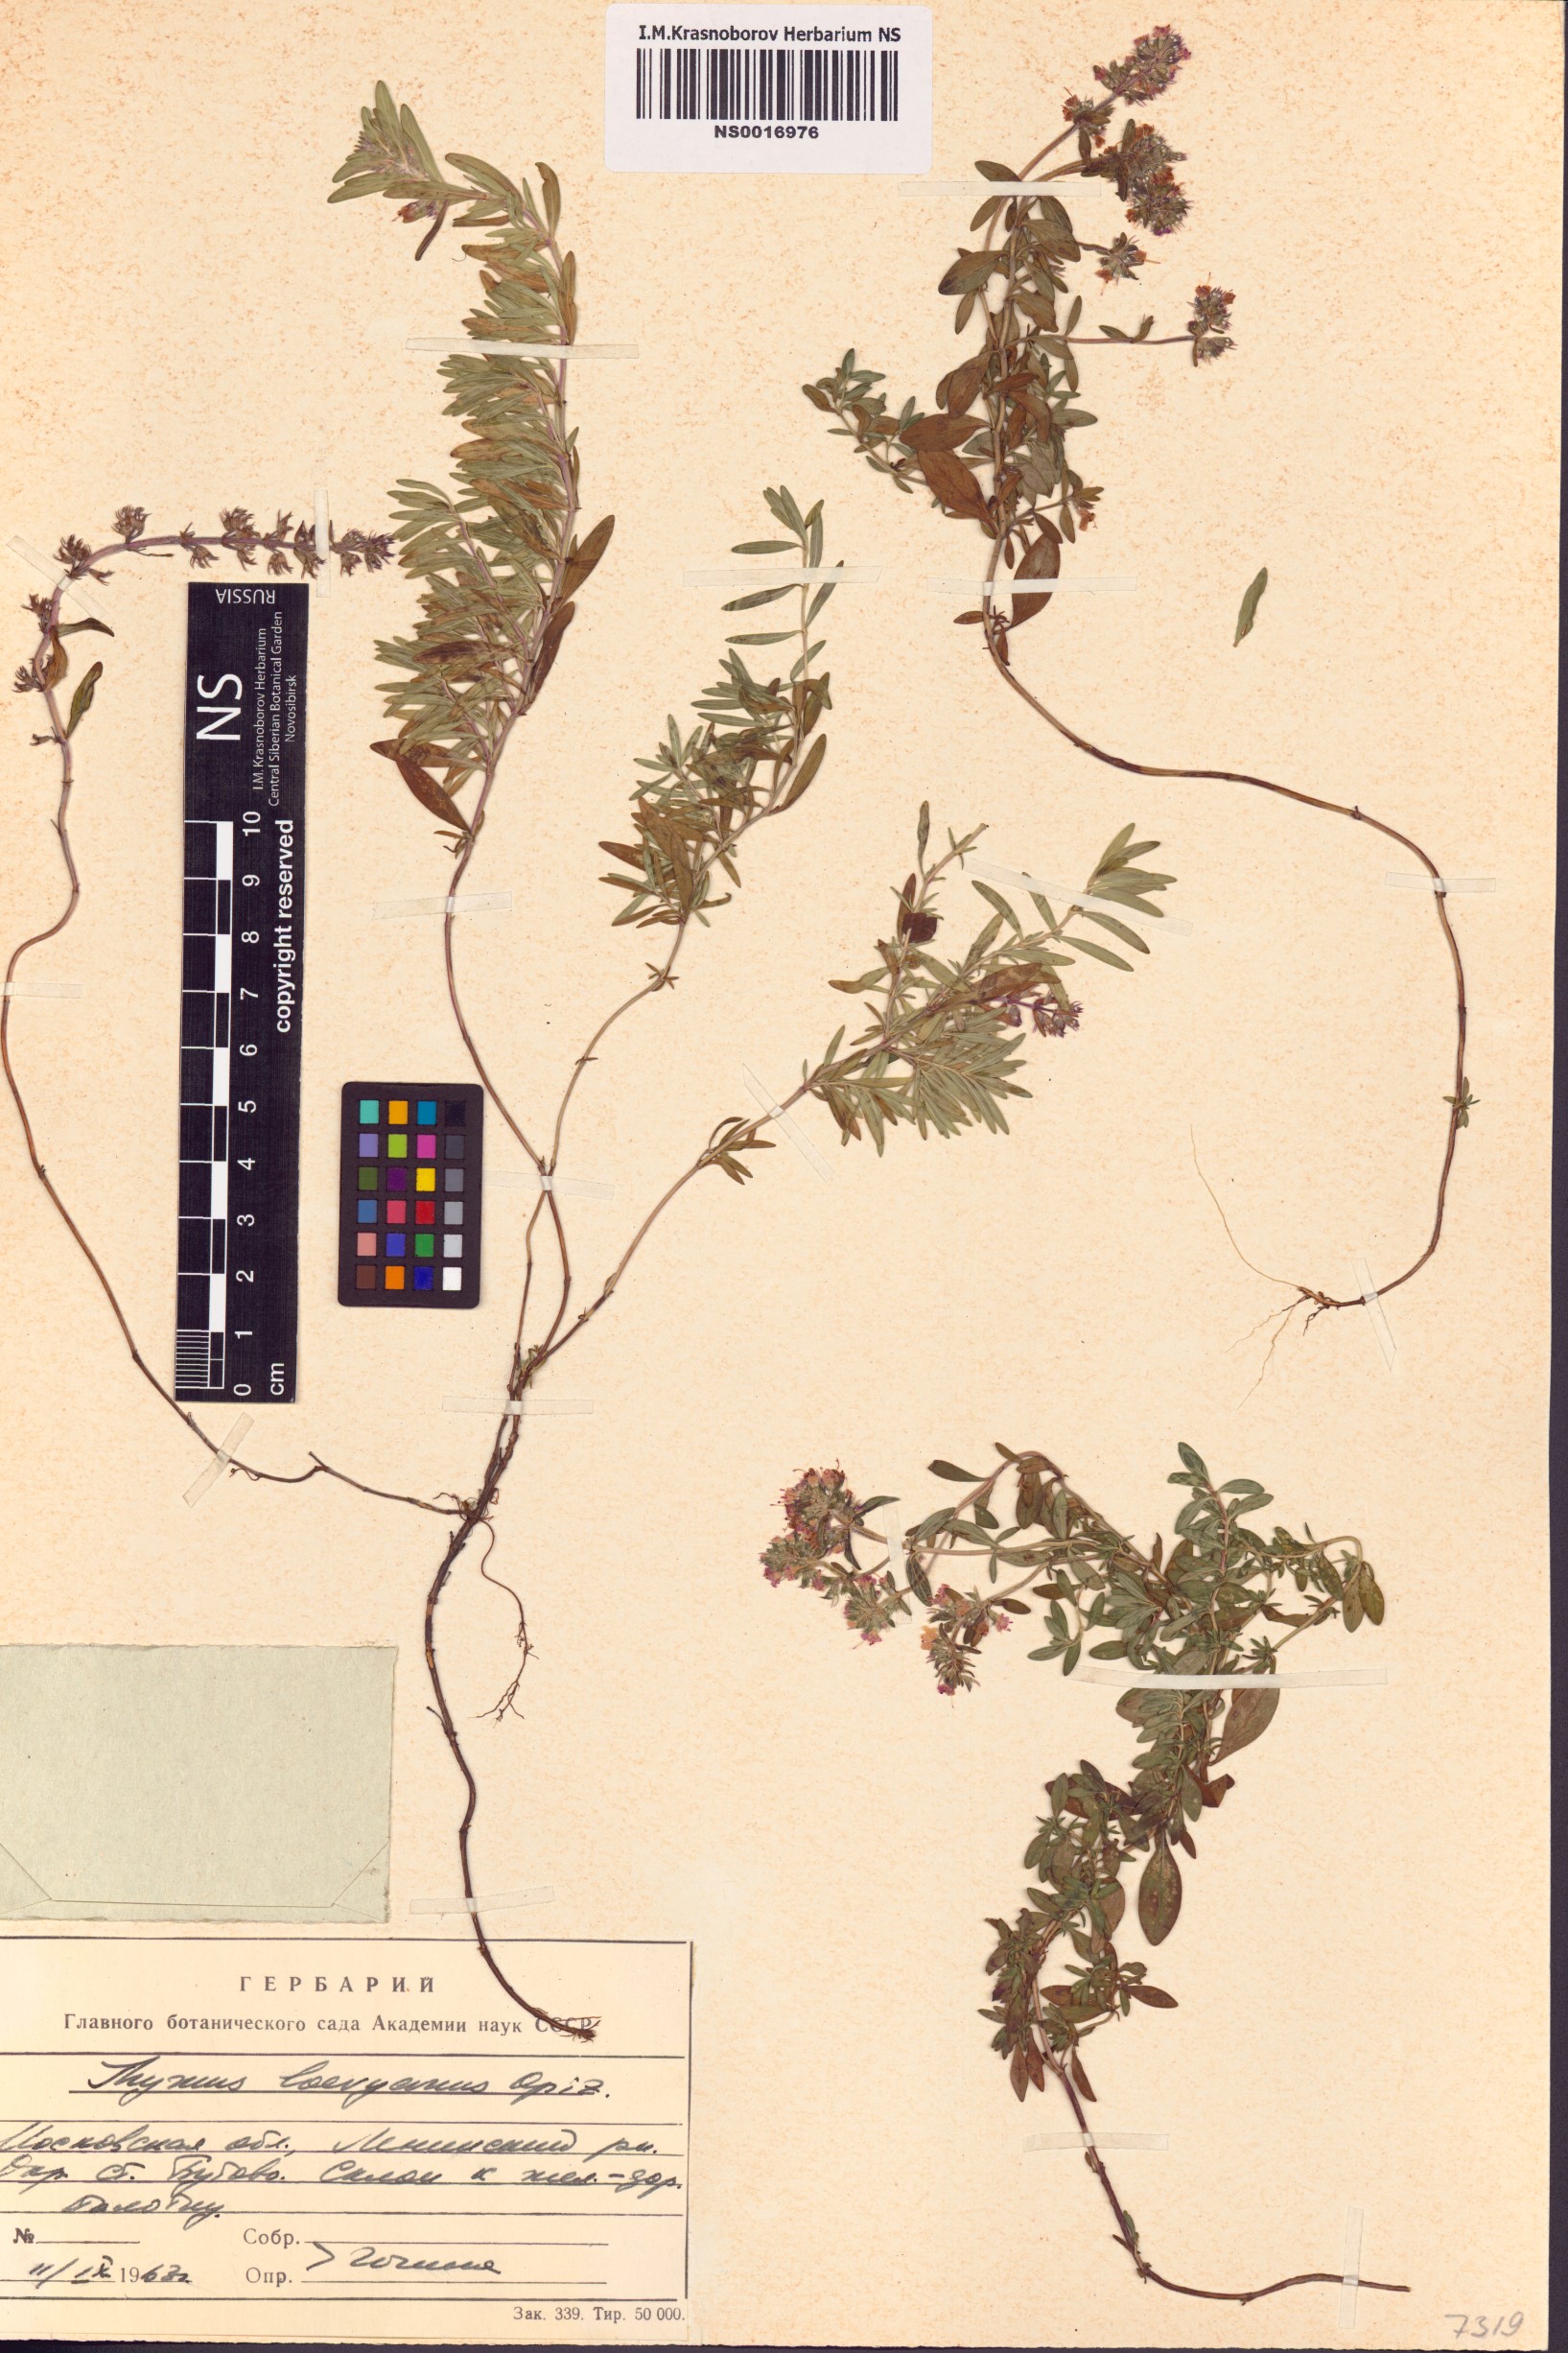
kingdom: Plantae
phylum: Tracheophyta
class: Magnoliopsida
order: Lamiales
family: Lamiaceae
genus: Thymus
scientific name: Thymus odoratissimus
